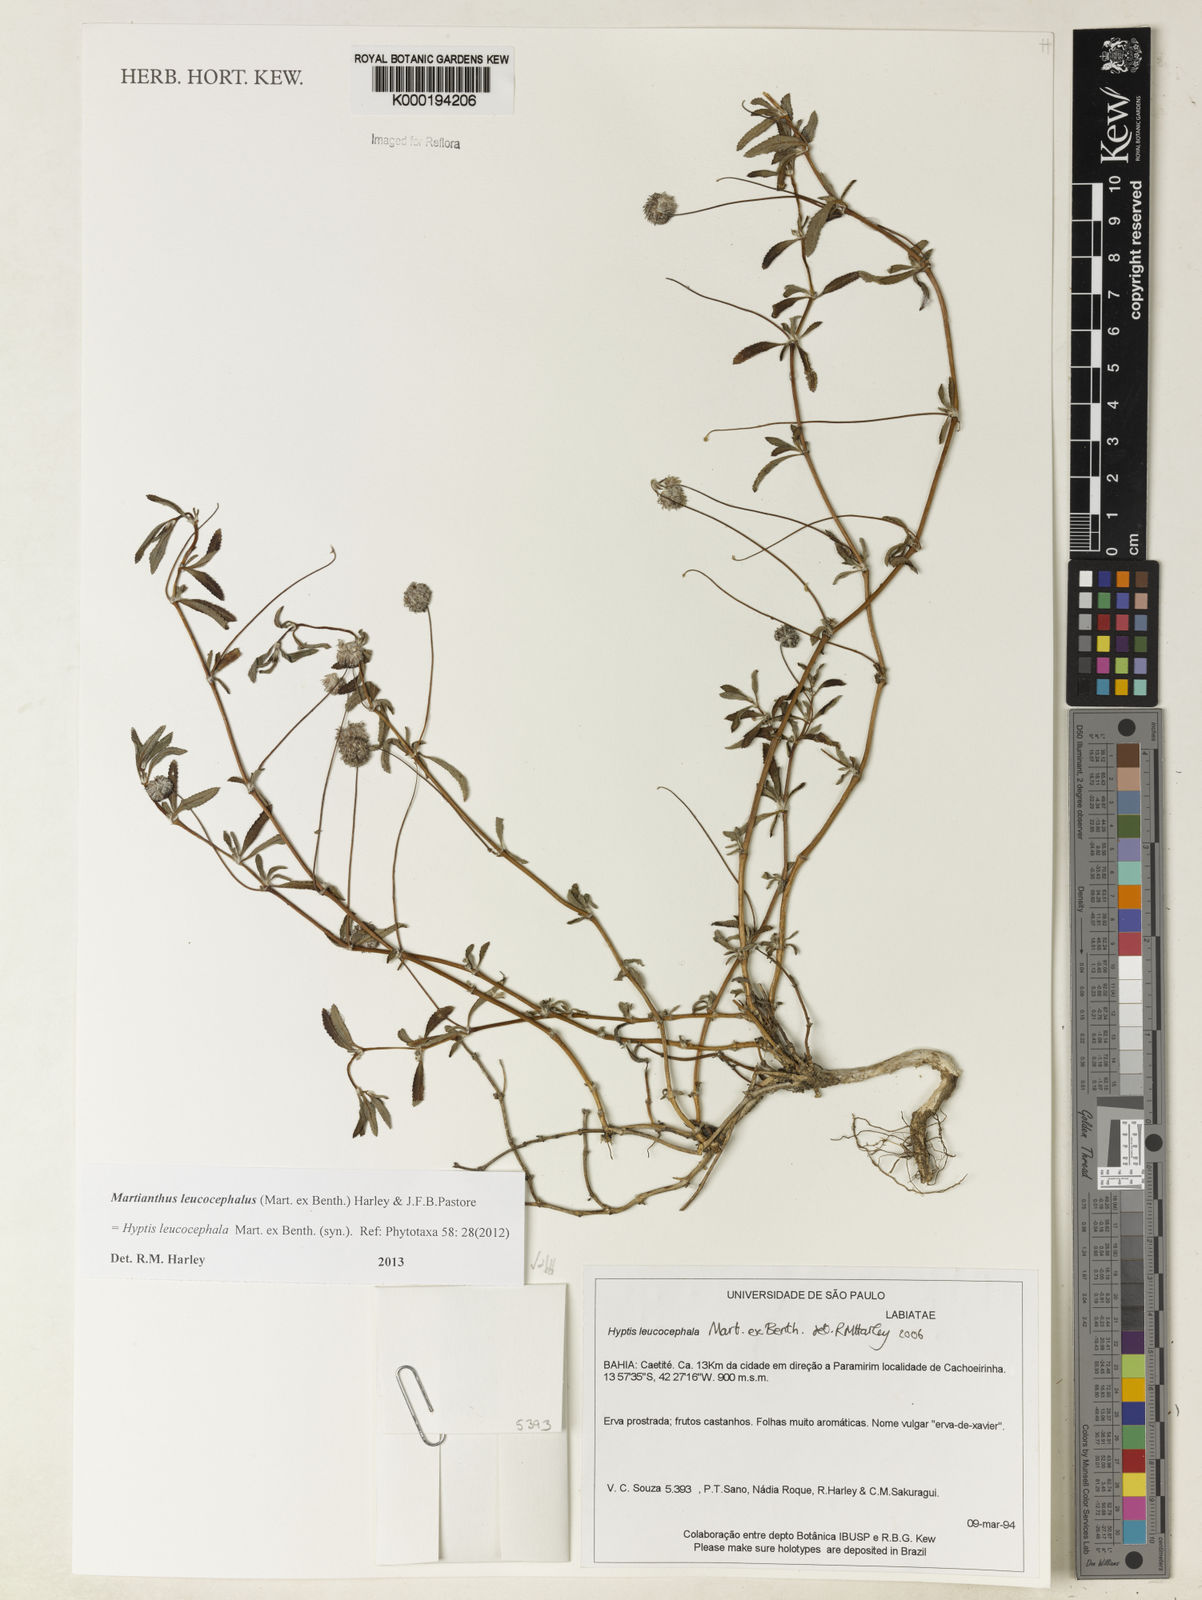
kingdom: Plantae
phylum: Tracheophyta
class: Magnoliopsida
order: Lamiales
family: Lamiaceae
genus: Martianthus
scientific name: Martianthus leucocephalus
